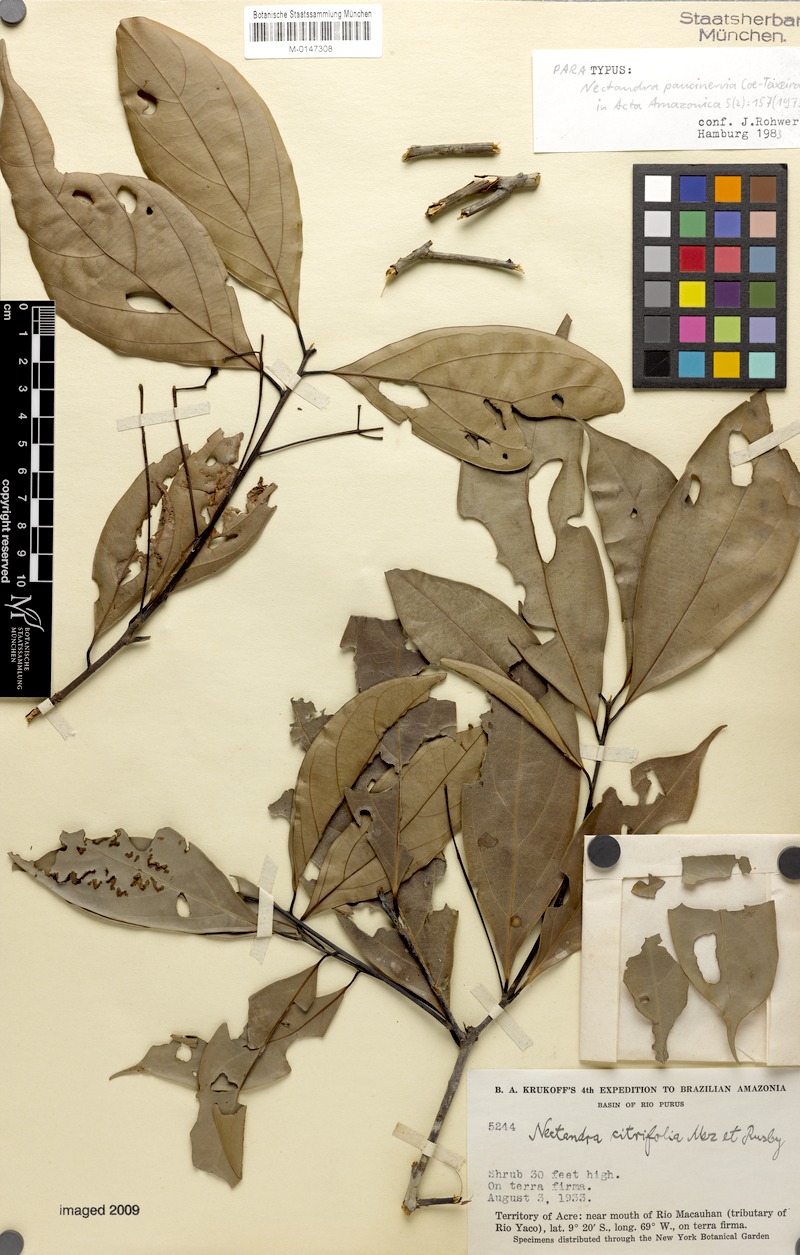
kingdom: Plantae
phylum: Tracheophyta
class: Magnoliopsida
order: Laurales
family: Lauraceae
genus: Nectandra
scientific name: Nectandra paucinervia
